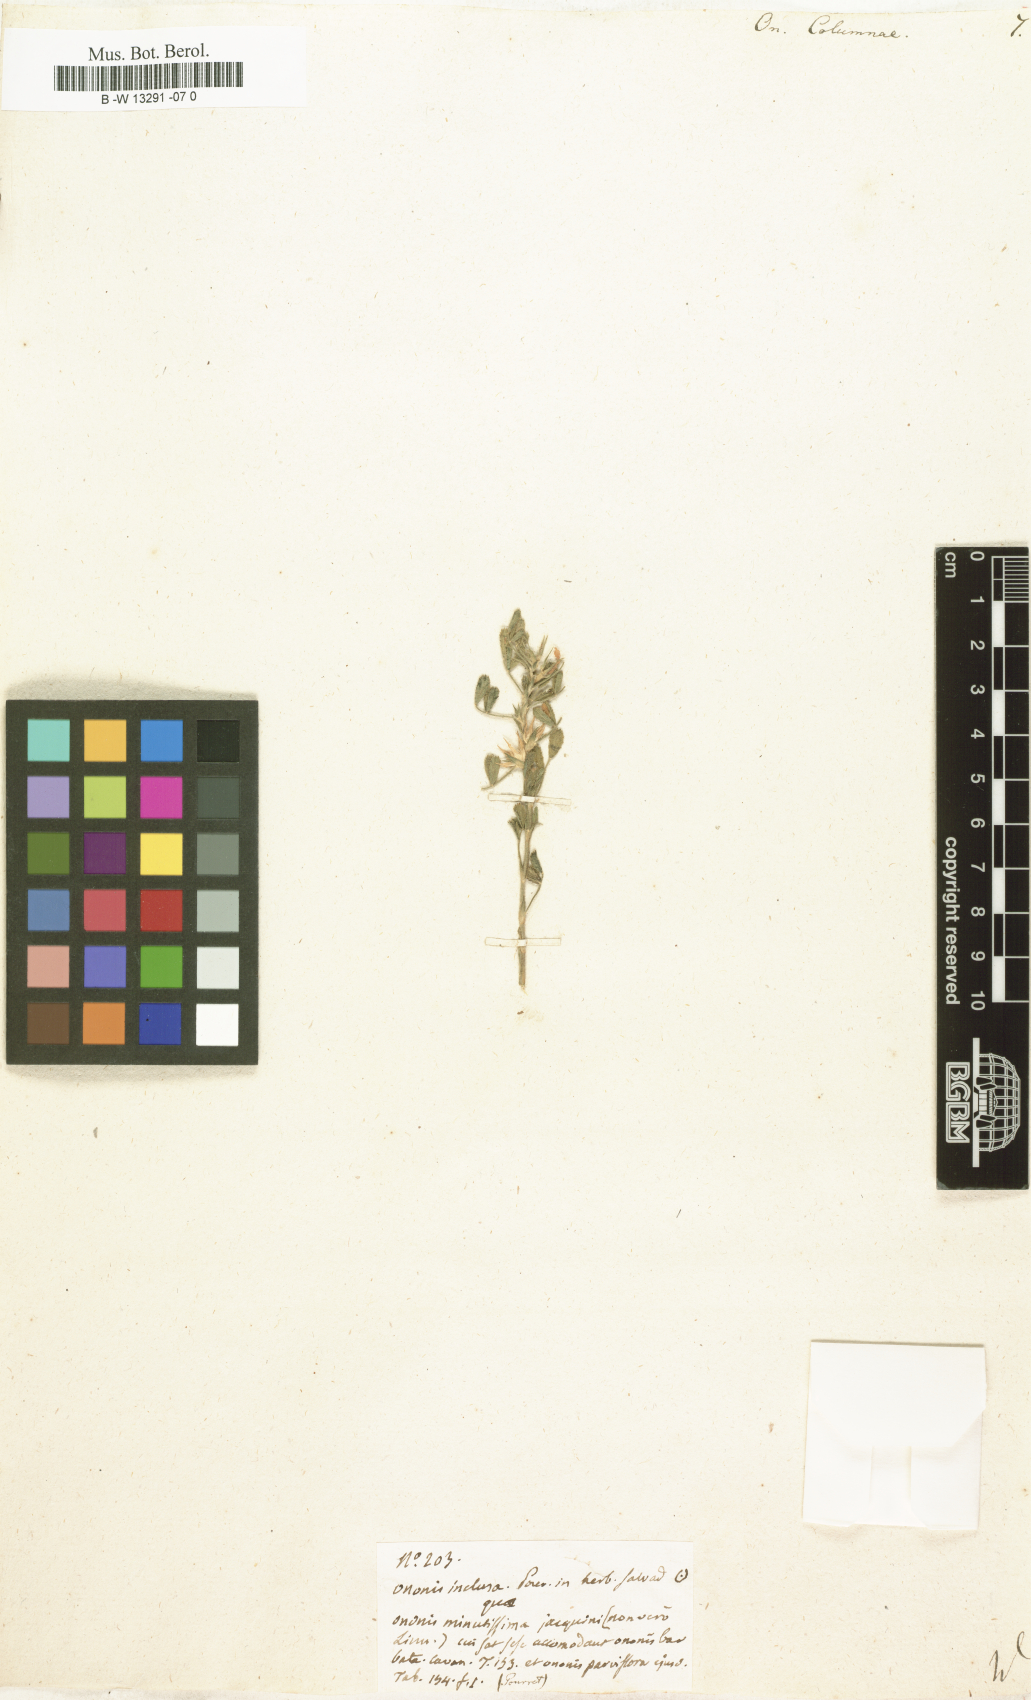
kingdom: Plantae
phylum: Tracheophyta
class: Magnoliopsida
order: Fabales
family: Fabaceae
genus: Ononis
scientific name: Ononis pusilla
